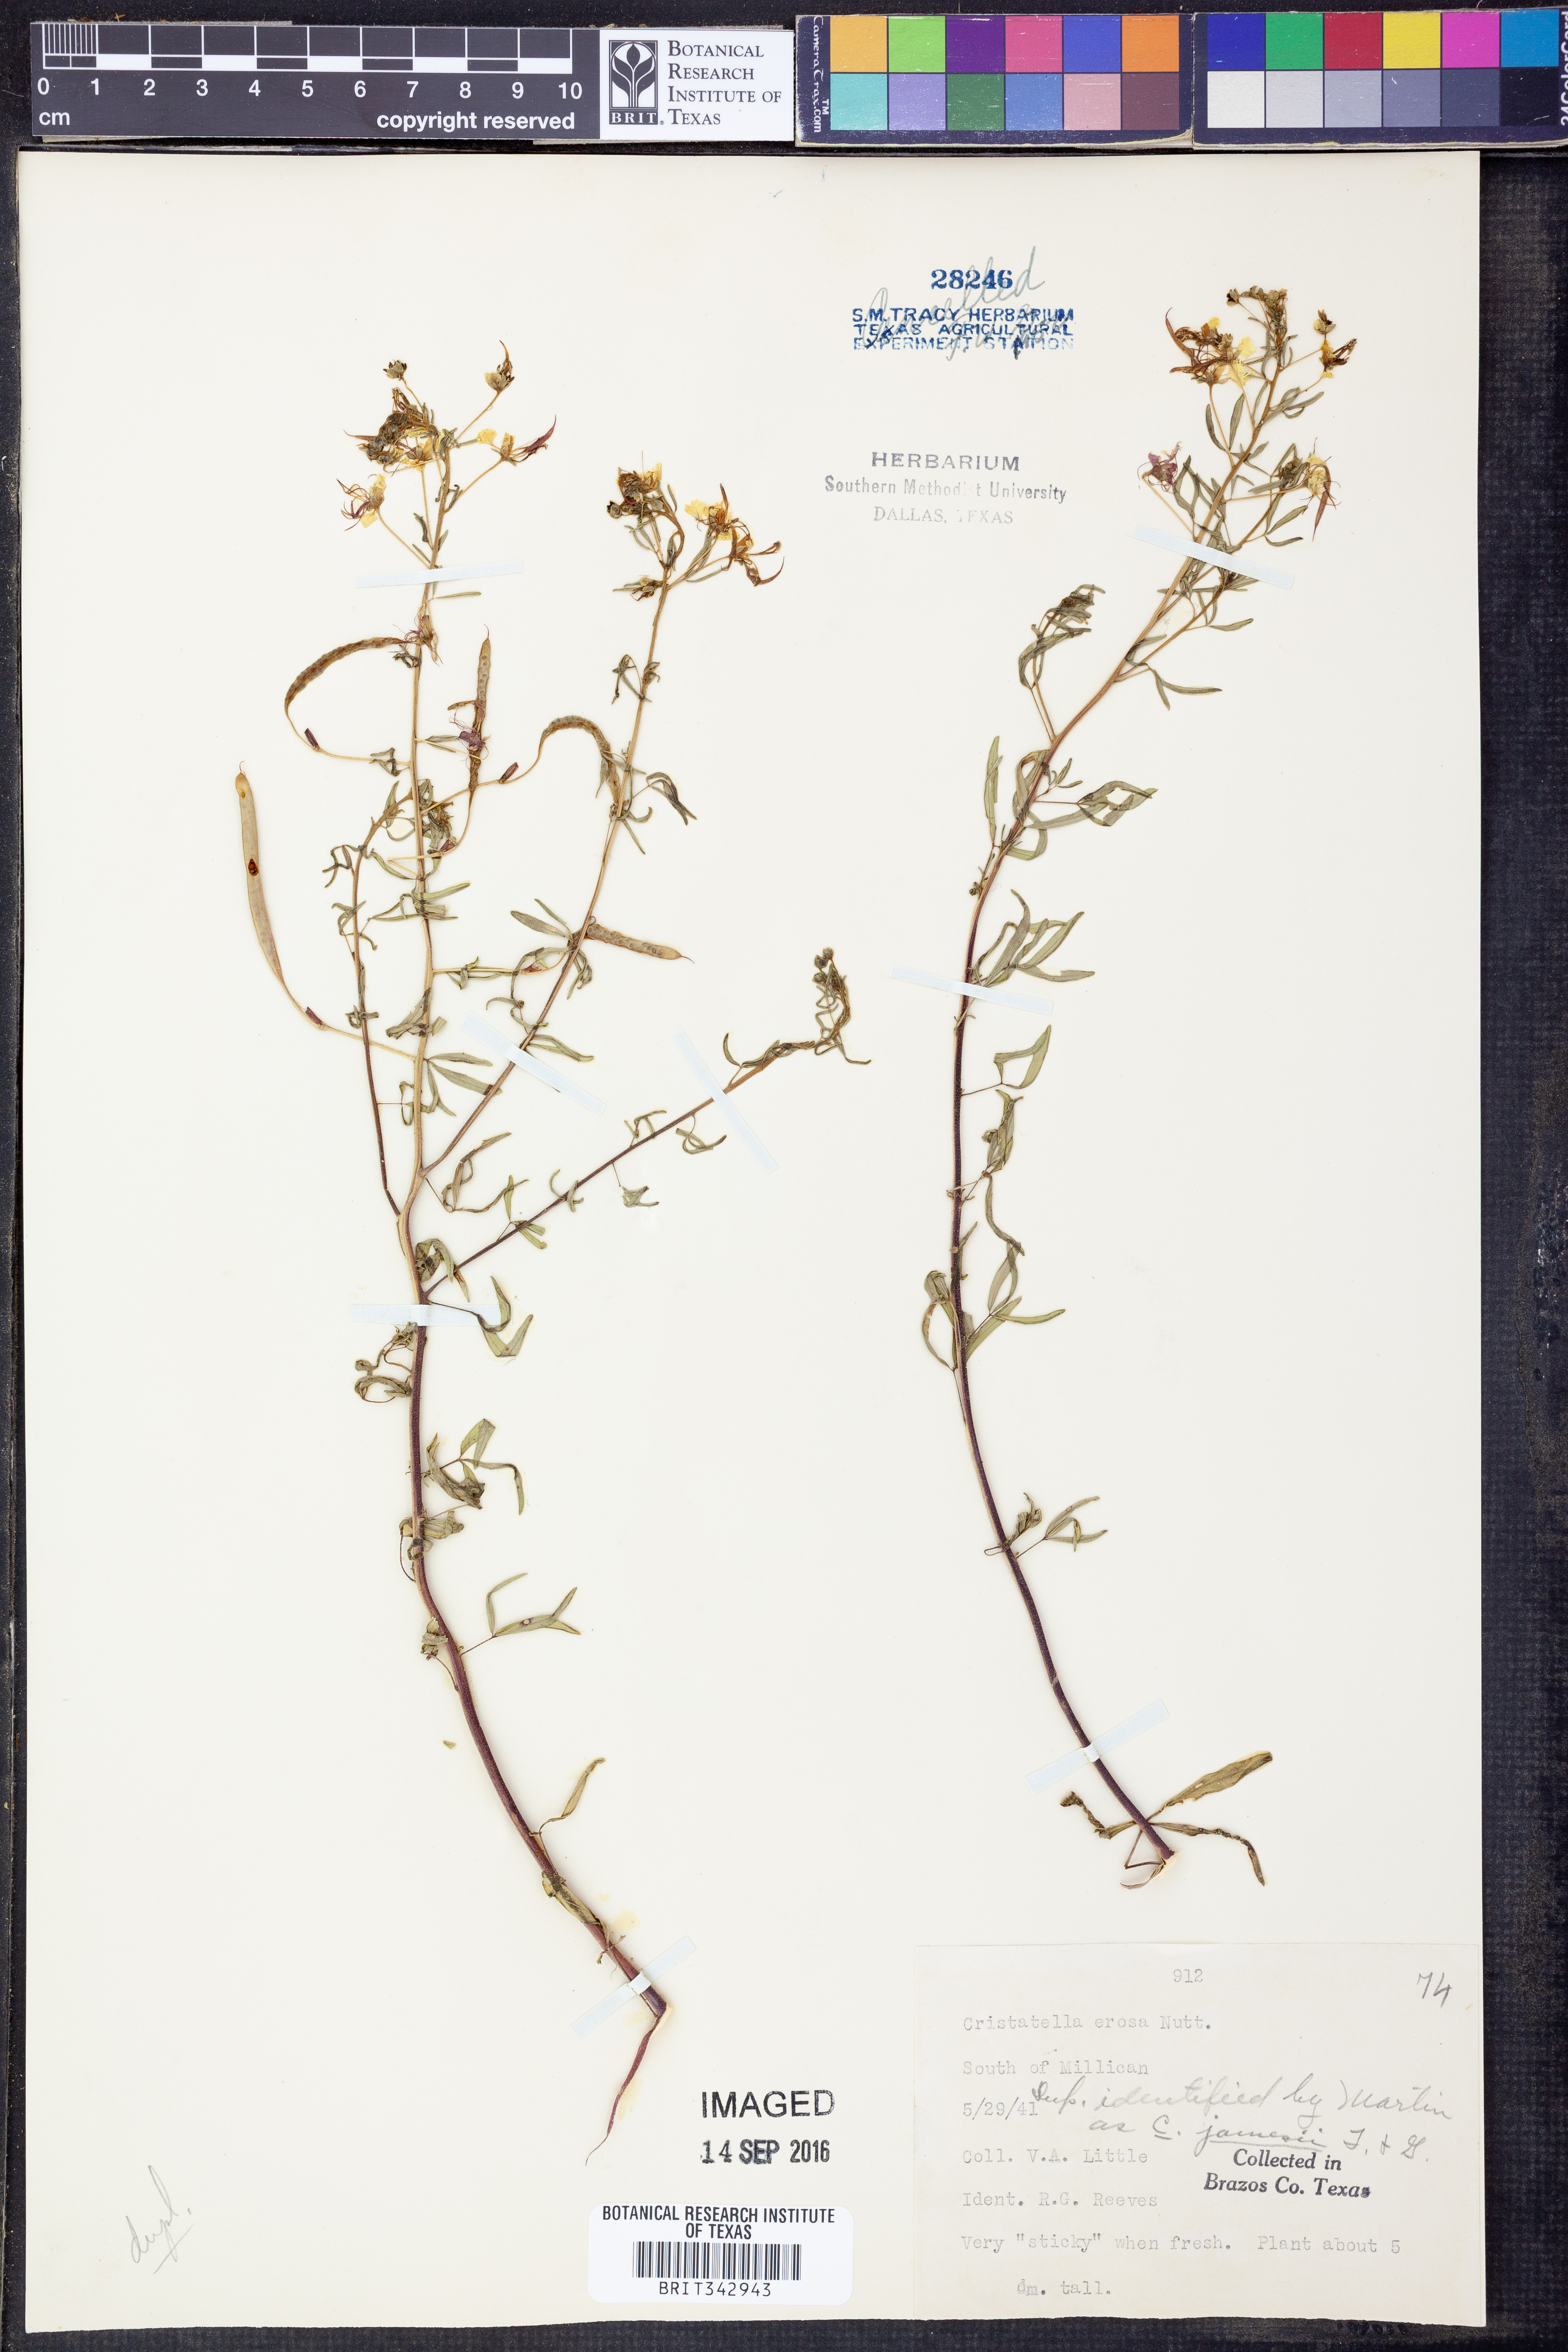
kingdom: Plantae
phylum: Tracheophyta
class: Magnoliopsida
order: Brassicales
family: Cleomaceae
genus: Polanisia
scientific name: Polanisia erosa
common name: Large clammyweed
